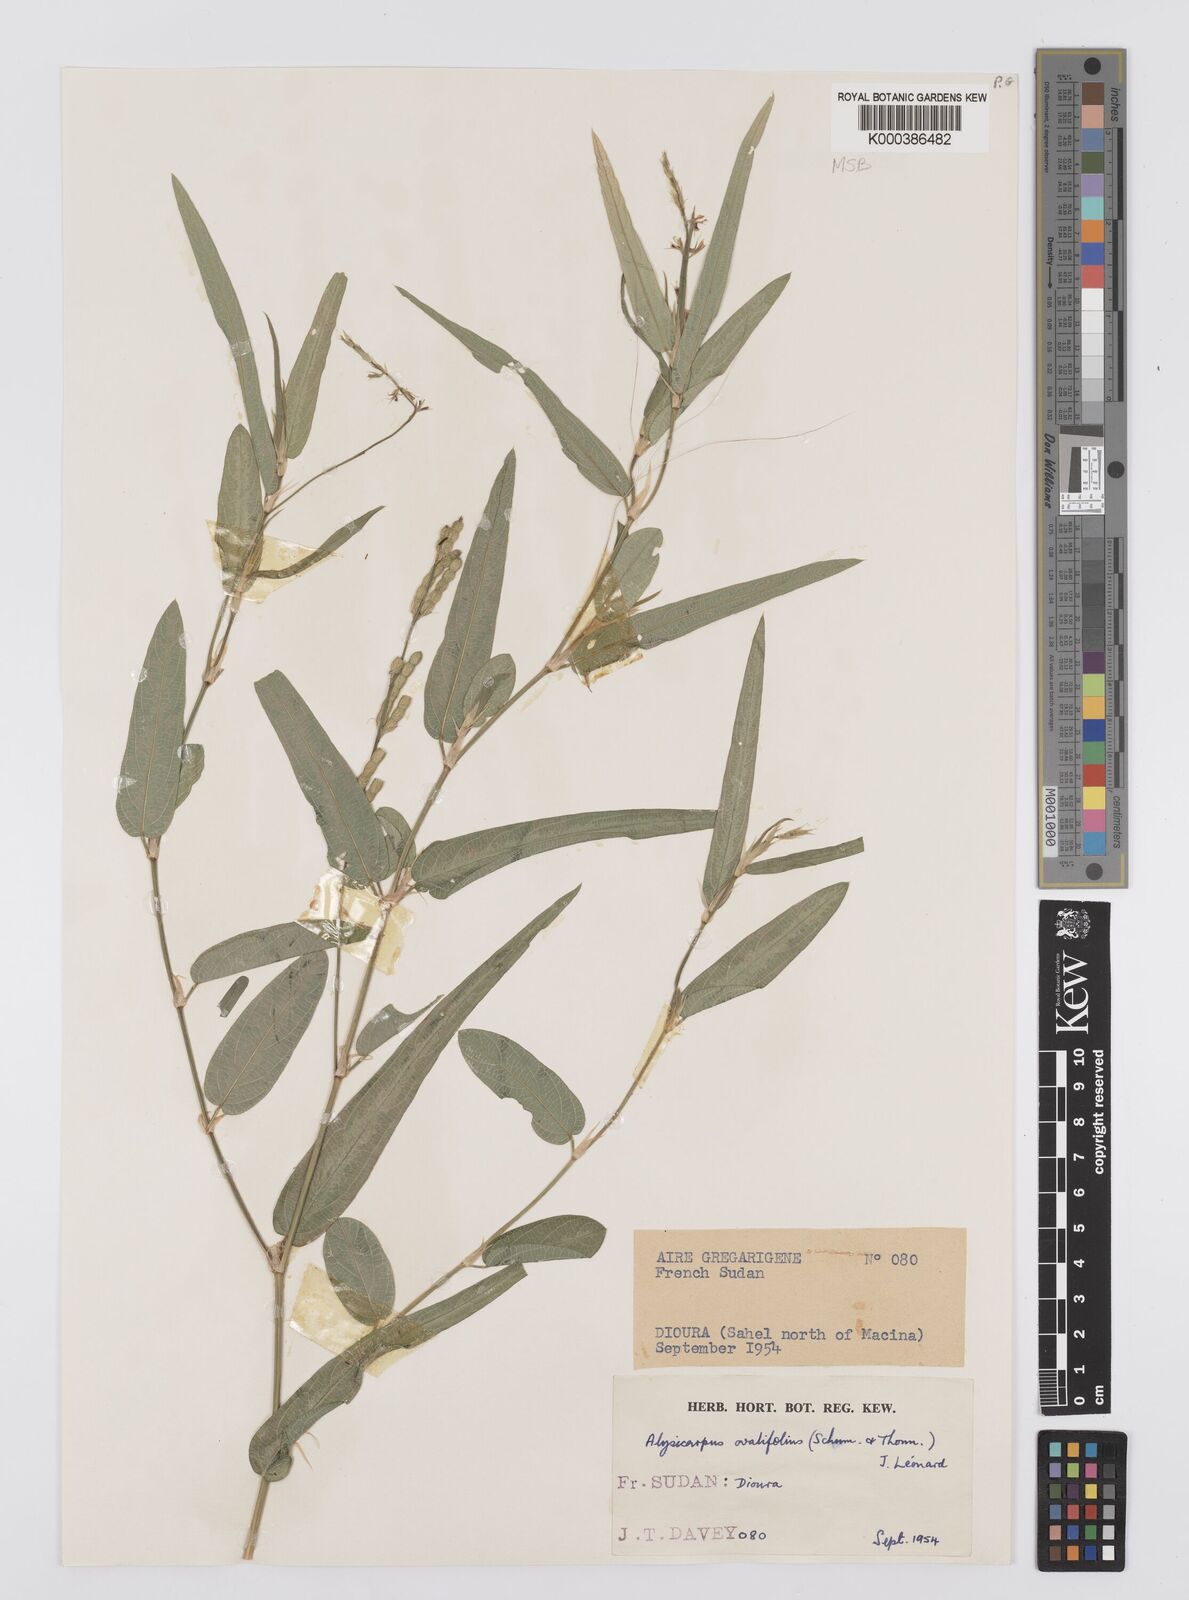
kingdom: Plantae
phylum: Tracheophyta
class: Magnoliopsida
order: Fabales
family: Fabaceae
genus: Alysicarpus
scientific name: Alysicarpus ovalifolius
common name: Alyce clover
